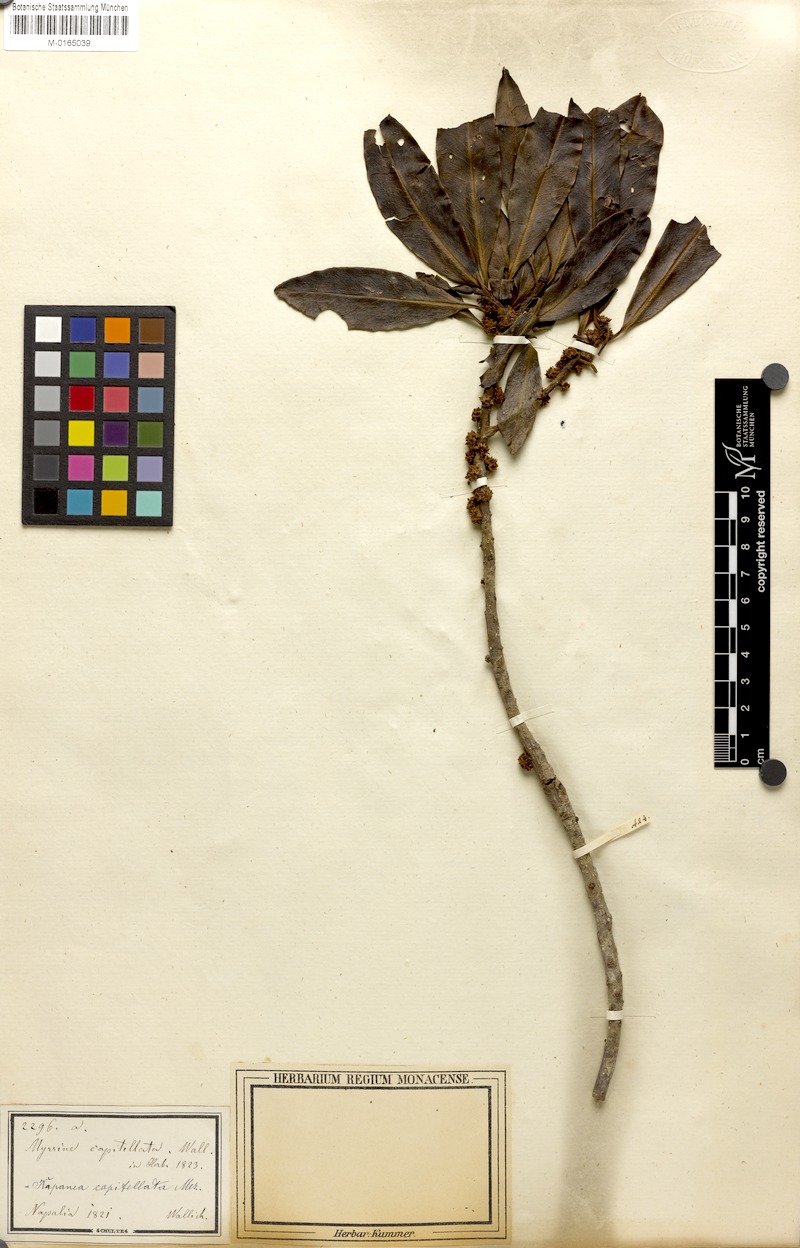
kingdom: Plantae
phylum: Tracheophyta
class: Magnoliopsida
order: Ericales
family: Primulaceae
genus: Myrsine
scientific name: Myrsine capitellata
